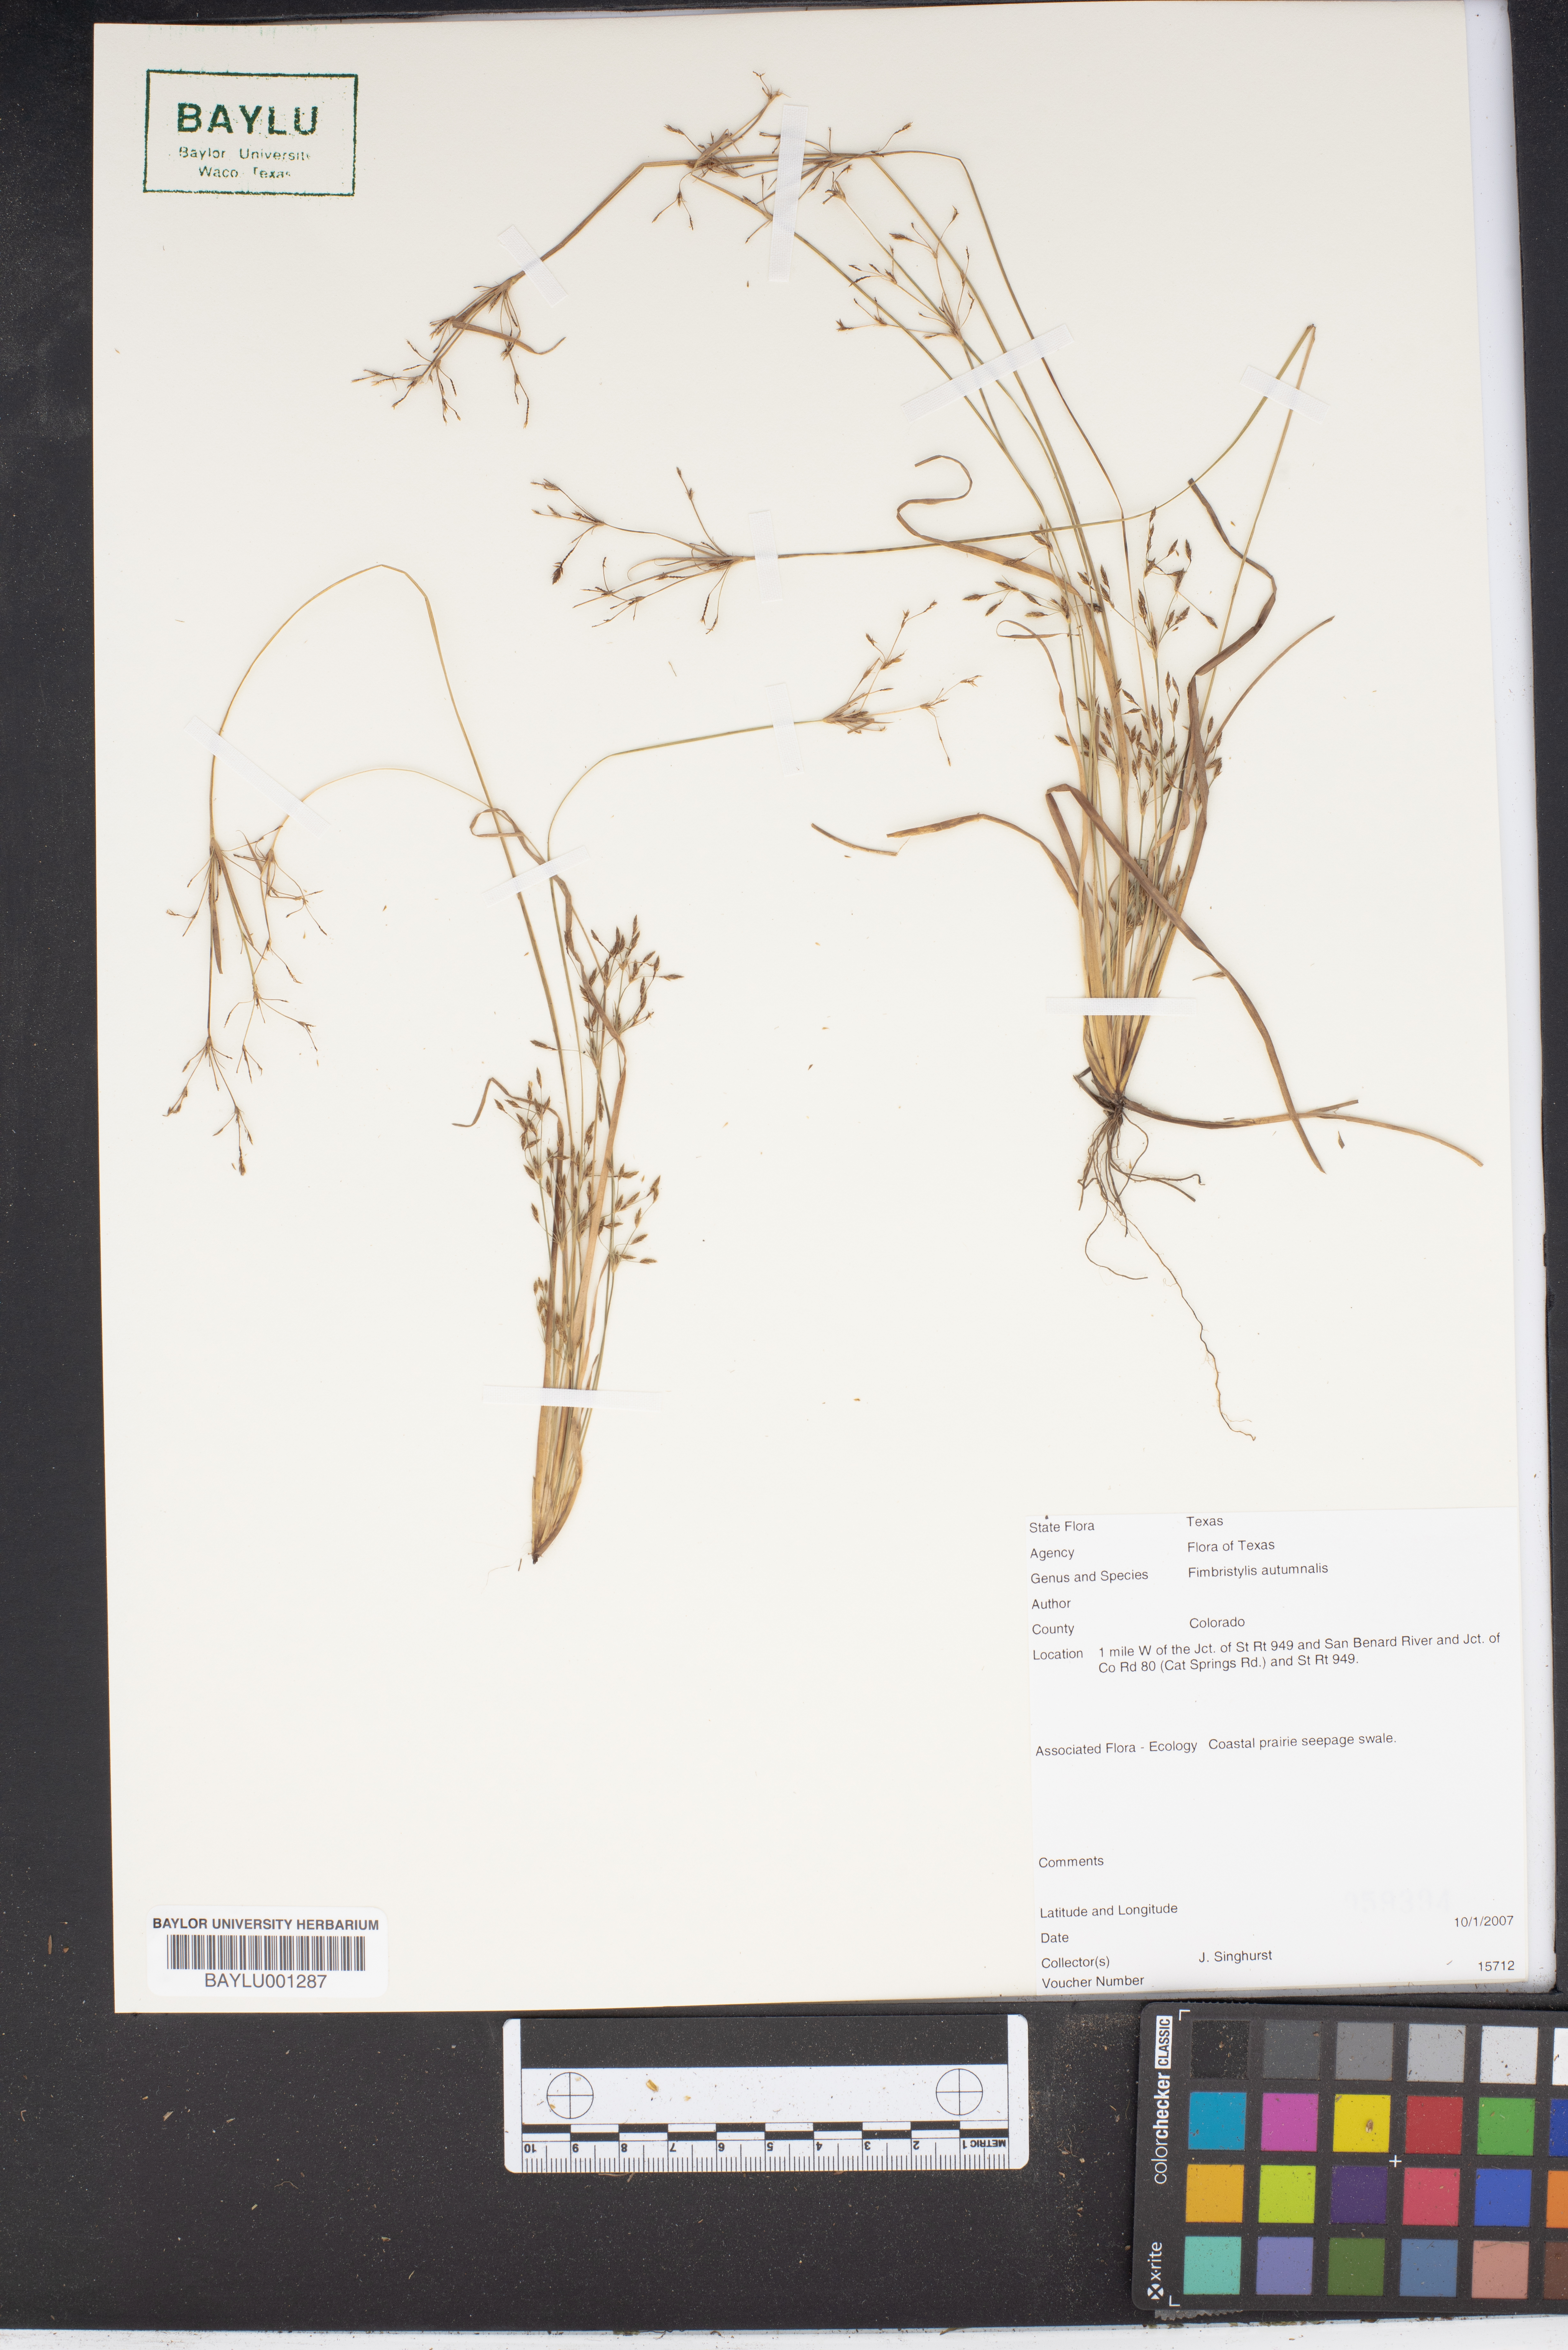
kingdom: Plantae
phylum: Tracheophyta
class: Liliopsida
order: Poales
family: Cyperaceae
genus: Fimbristylis
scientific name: Fimbristylis autumnalis
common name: Slender fimbristylis
